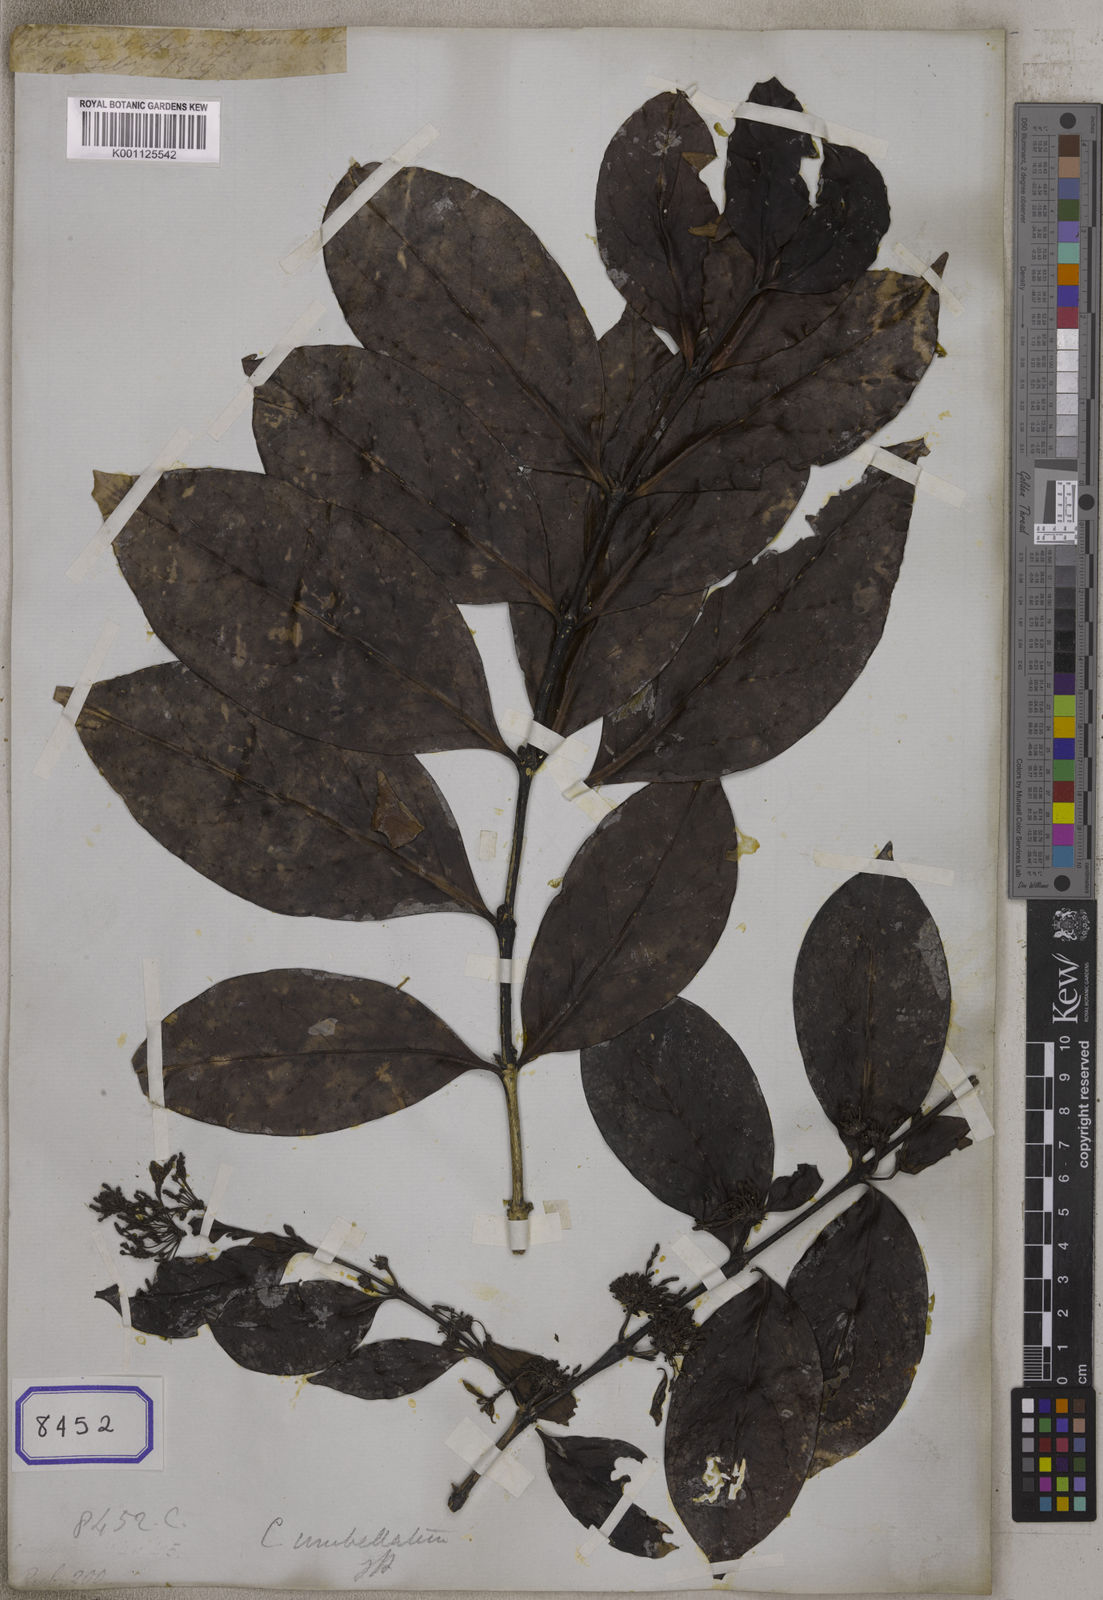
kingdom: Plantae
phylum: Tracheophyta
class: Magnoliopsida
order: Gentianales
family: Rubiaceae
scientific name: Rubiaceae
